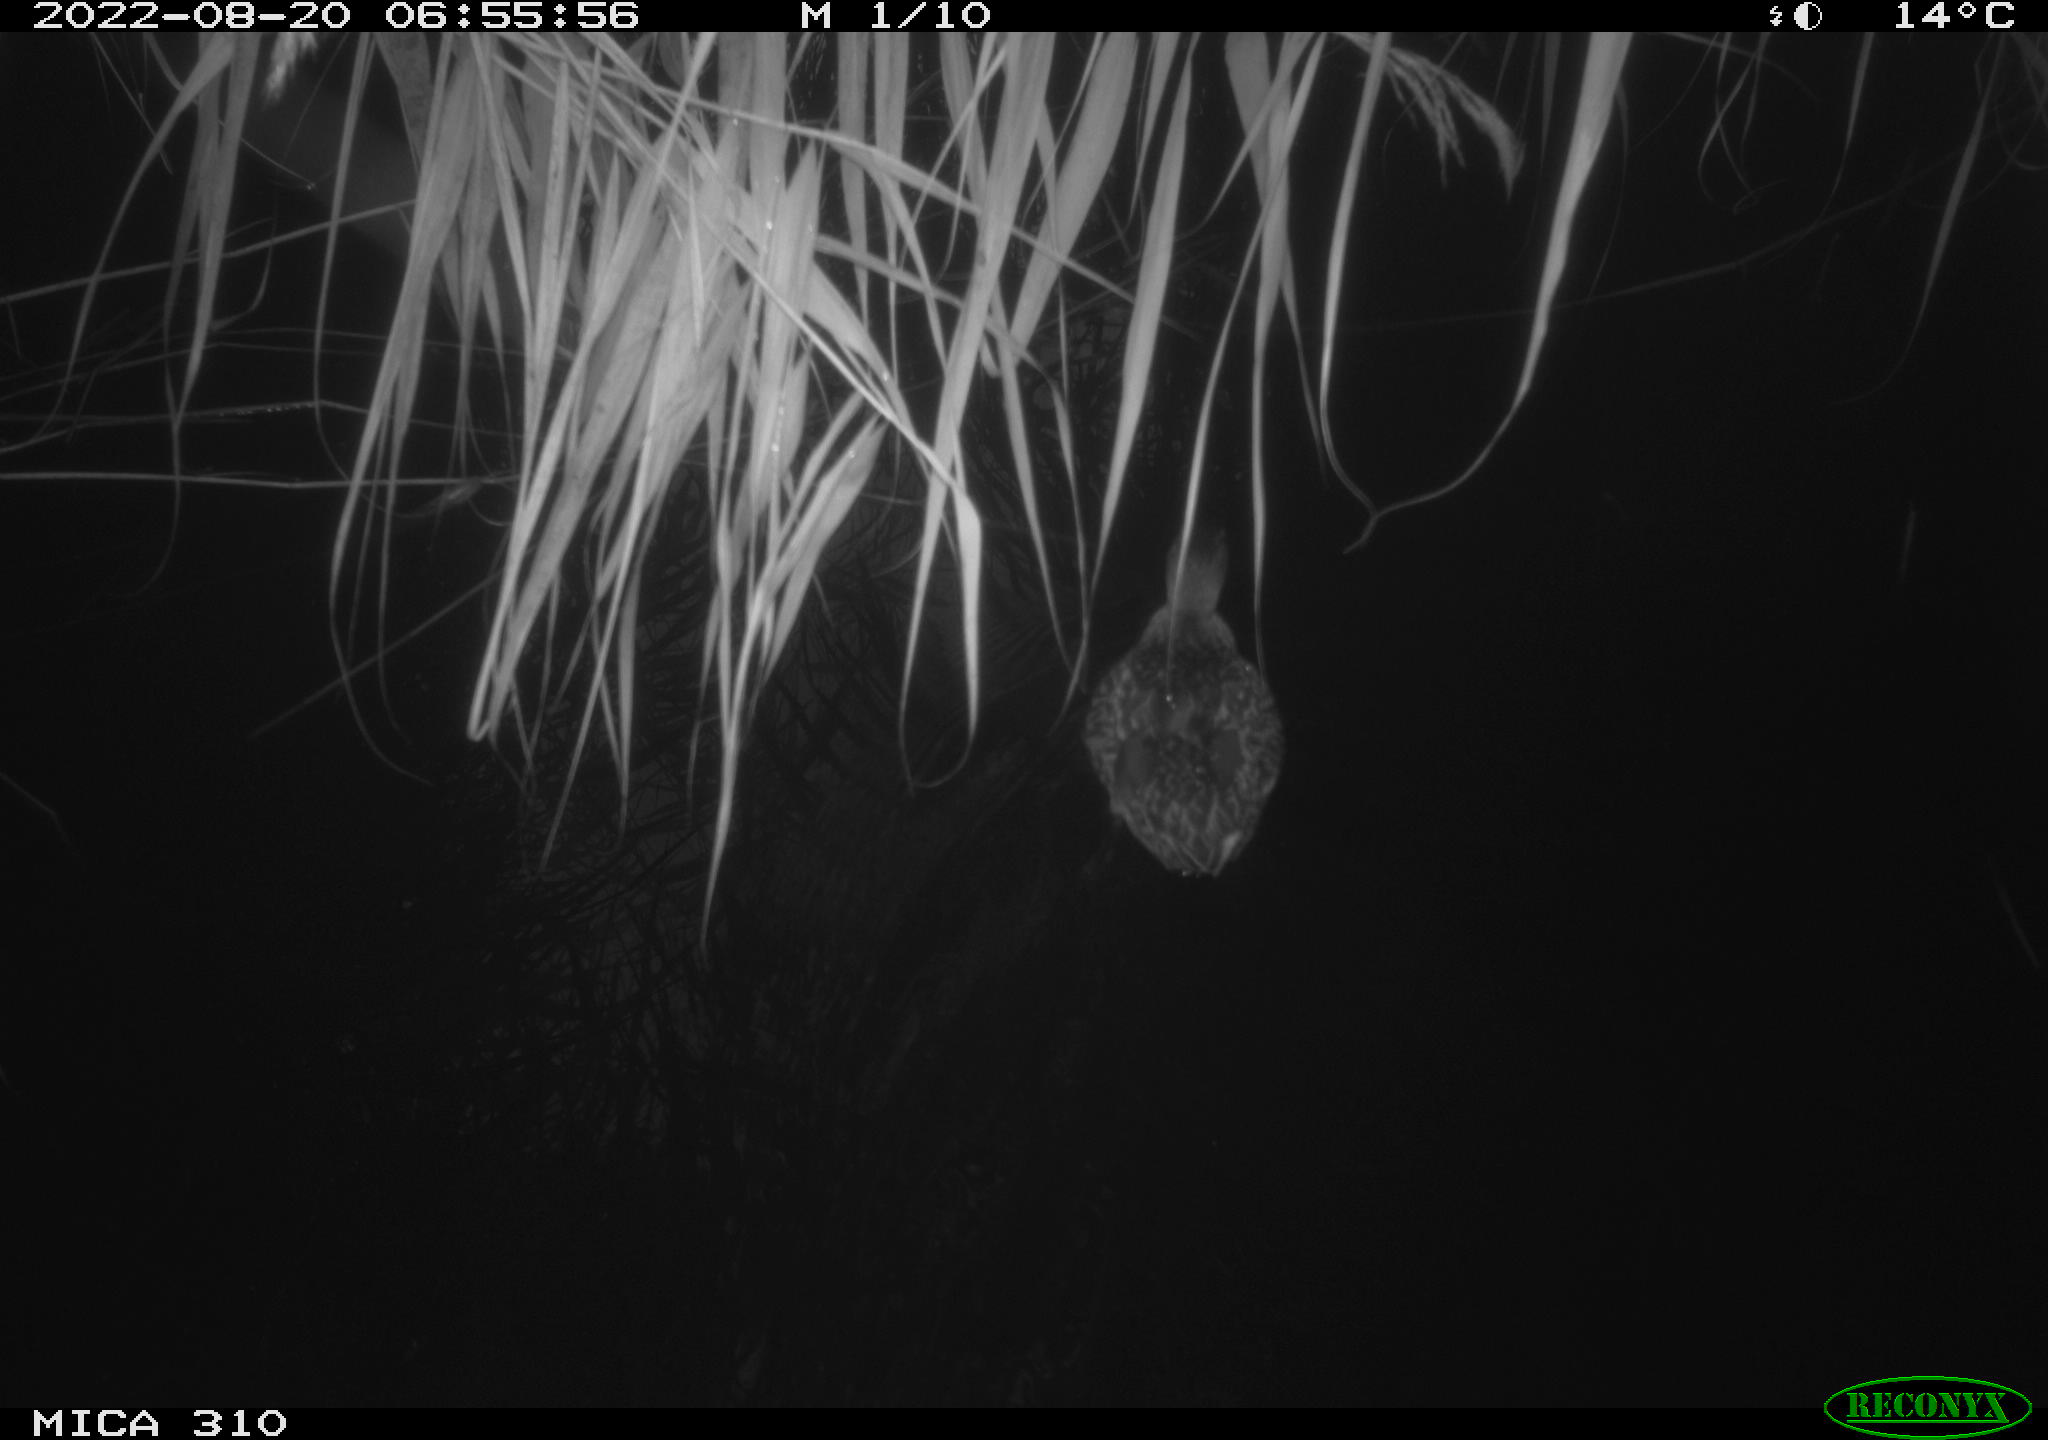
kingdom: Animalia
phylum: Chordata
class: Aves
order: Anseriformes
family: Anatidae
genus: Anas
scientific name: Anas platyrhynchos
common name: Mallard
